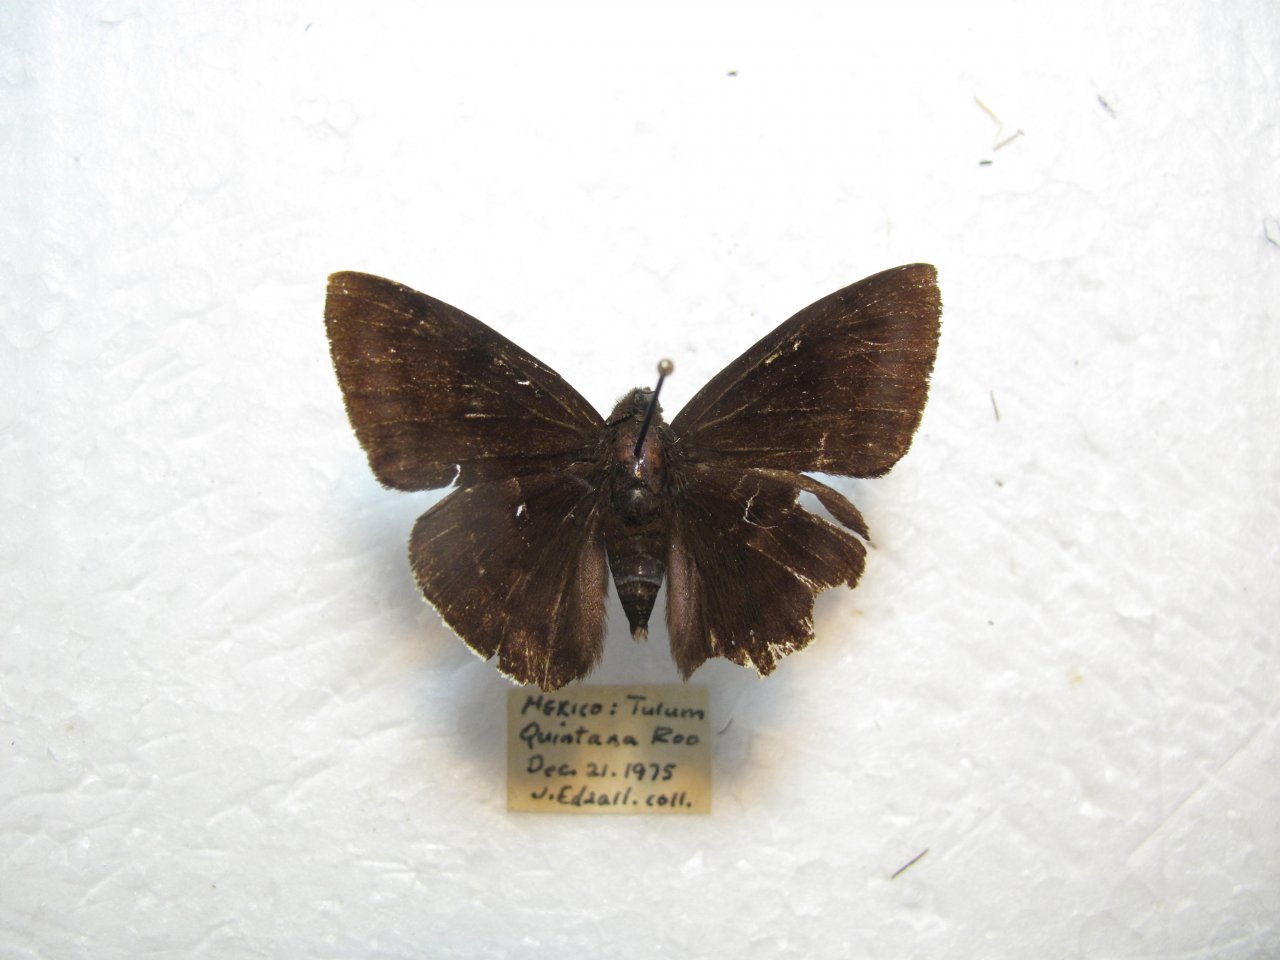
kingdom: Animalia
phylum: Arthropoda
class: Insecta
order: Lepidoptera
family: Hesperiidae
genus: Aethilla
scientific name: Aethilla echina
